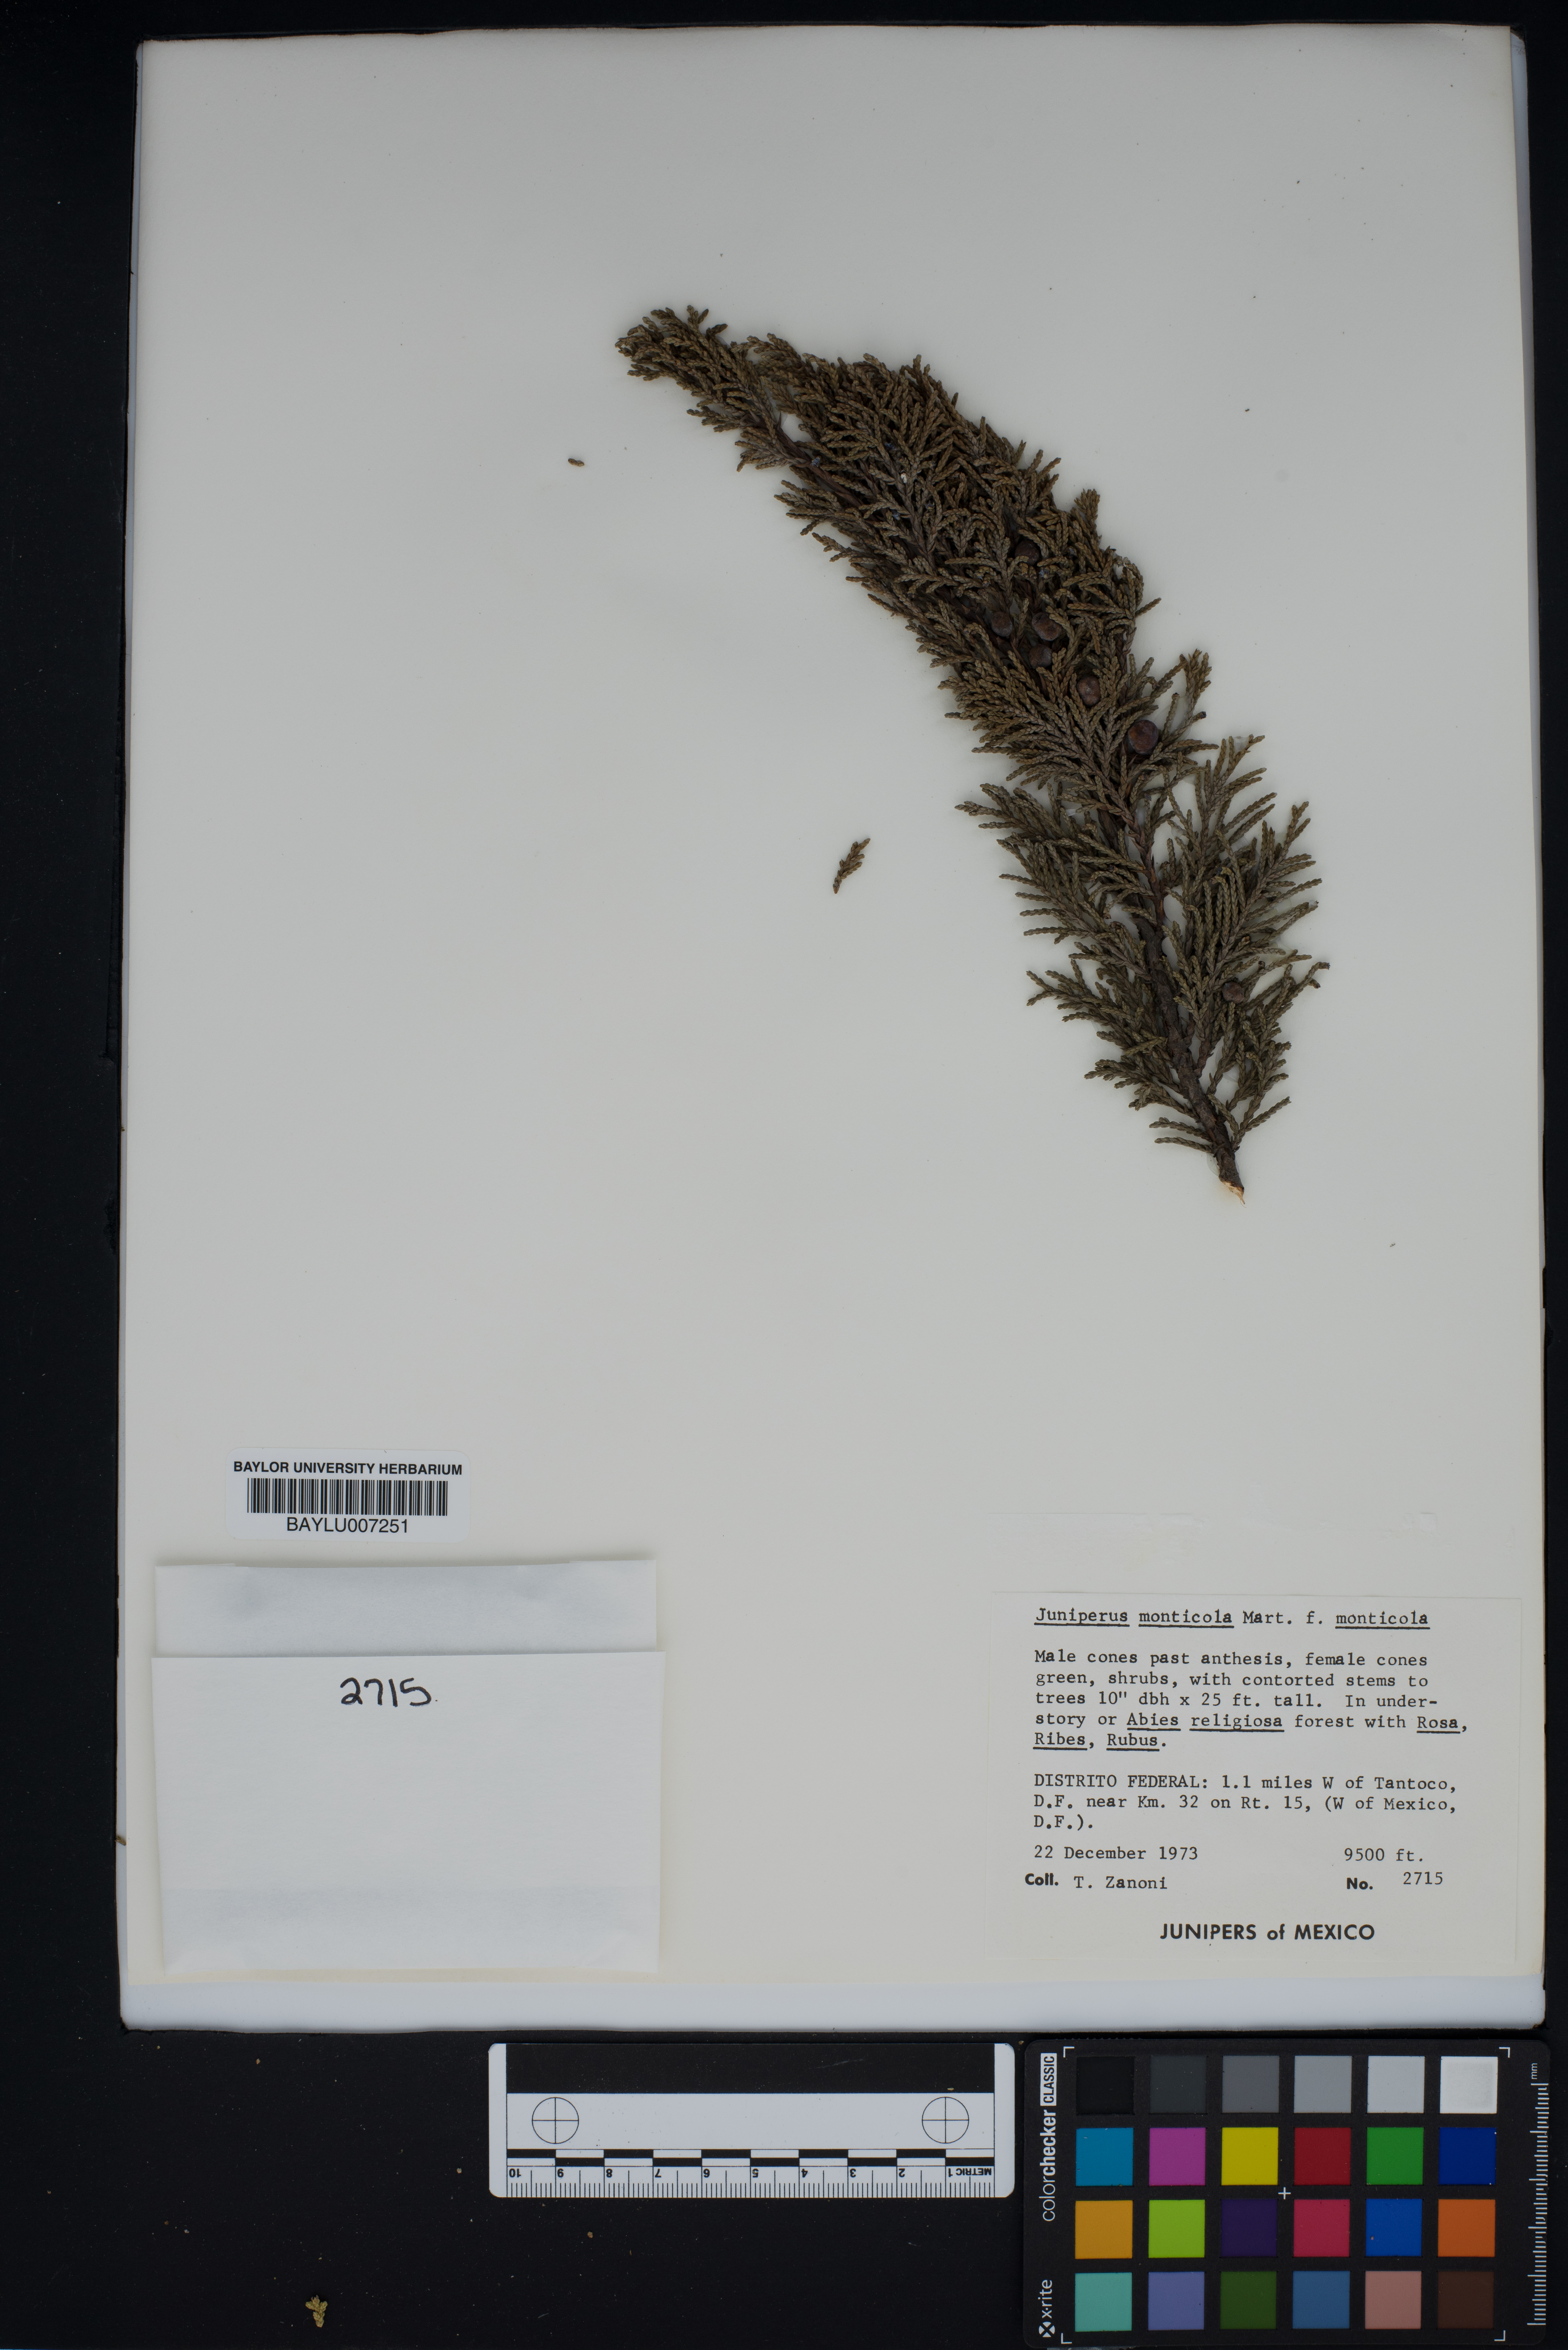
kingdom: Plantae
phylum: Tracheophyta
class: Pinopsida
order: Pinales
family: Cupressaceae
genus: Juniperus
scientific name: Juniperus monticola
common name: Mexican juniper
